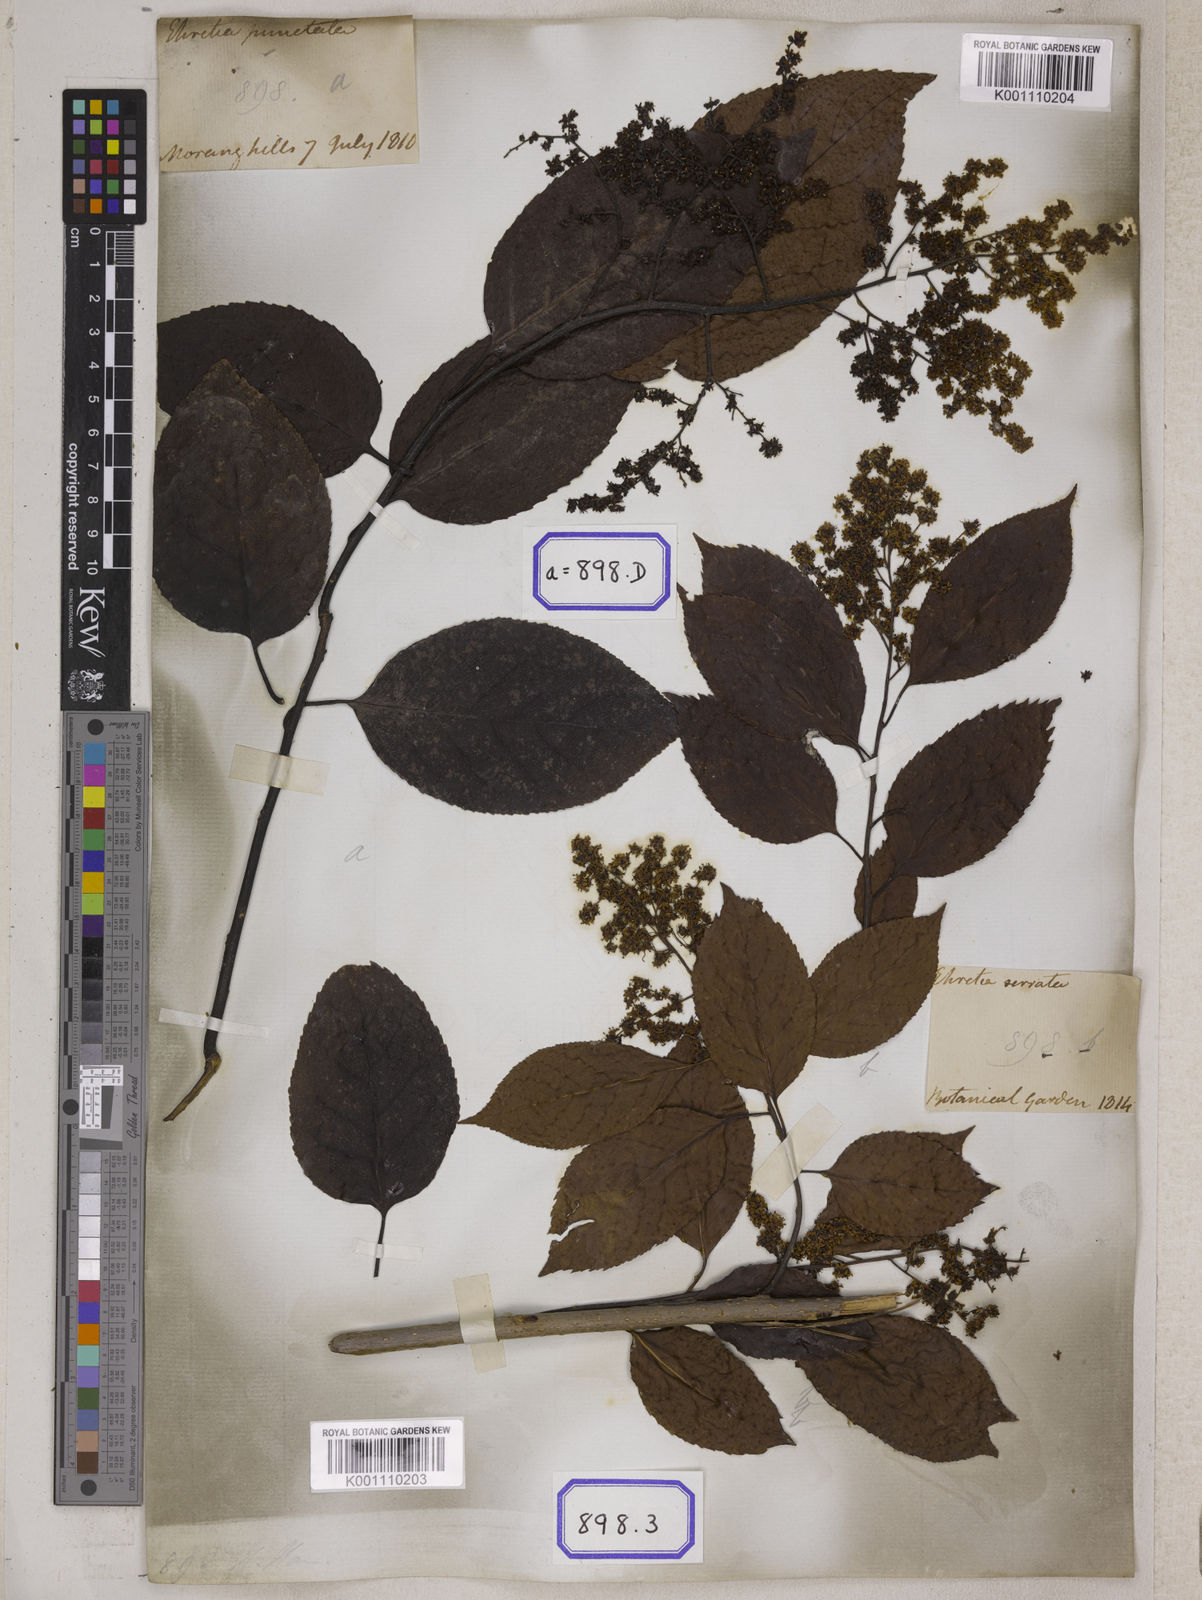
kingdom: Plantae
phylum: Tracheophyta
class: Magnoliopsida
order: Boraginales
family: Ehretiaceae
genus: Ehretia
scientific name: Ehretia acuminata
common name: Kodo wood
